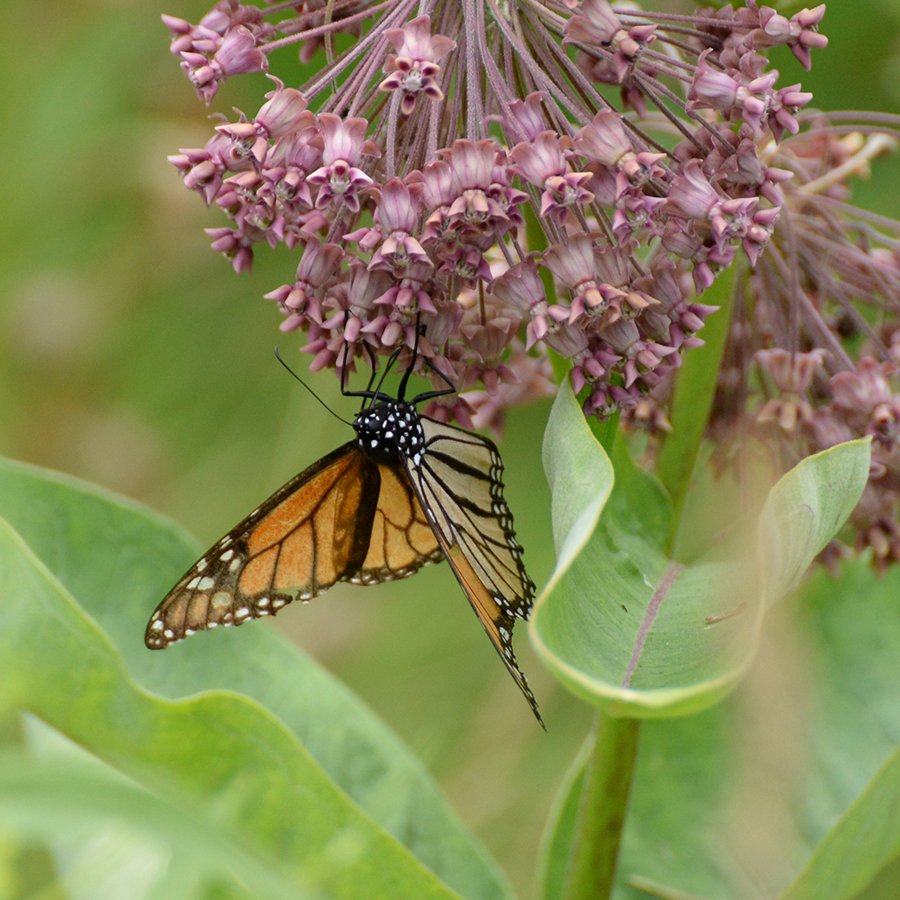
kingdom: Animalia
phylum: Arthropoda
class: Insecta
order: Lepidoptera
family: Nymphalidae
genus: Danaus
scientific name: Danaus plexippus
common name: Monarch
